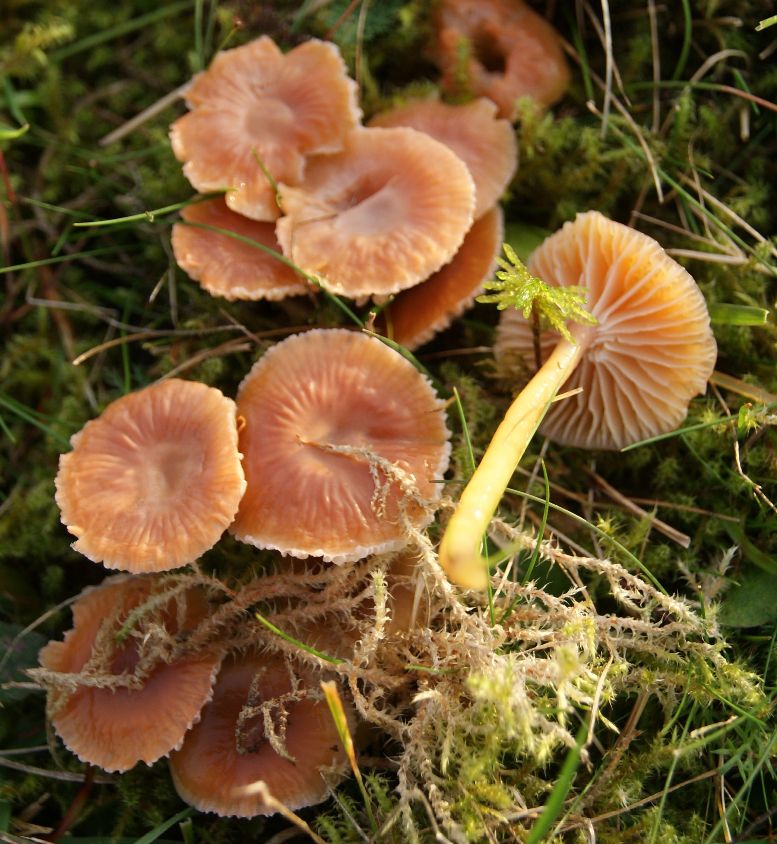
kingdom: Fungi
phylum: Basidiomycota
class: Agaricomycetes
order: Agaricales
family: Hygrophoraceae
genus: Gliophorus
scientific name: Gliophorus laetus
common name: brusk-vokshat
